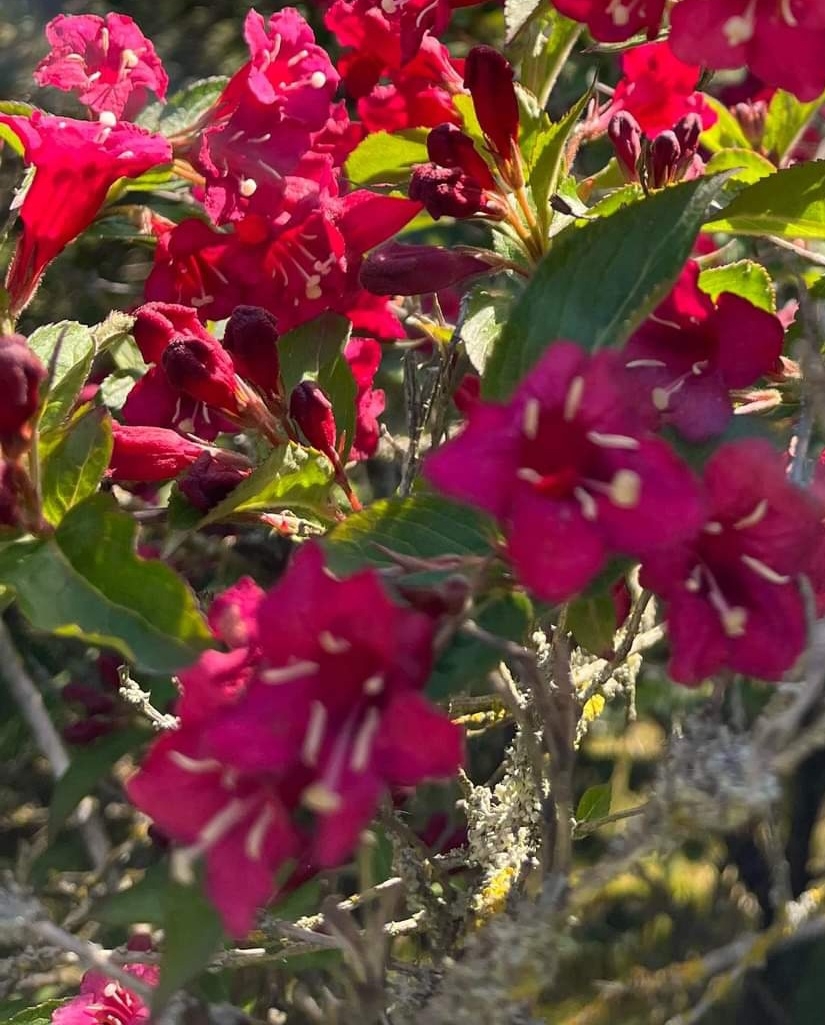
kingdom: Plantae
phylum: Tracheophyta
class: Polypodiopsida
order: Polypodiales
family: Woodsiaceae
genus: Weigela
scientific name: Weigela
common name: Weigela
